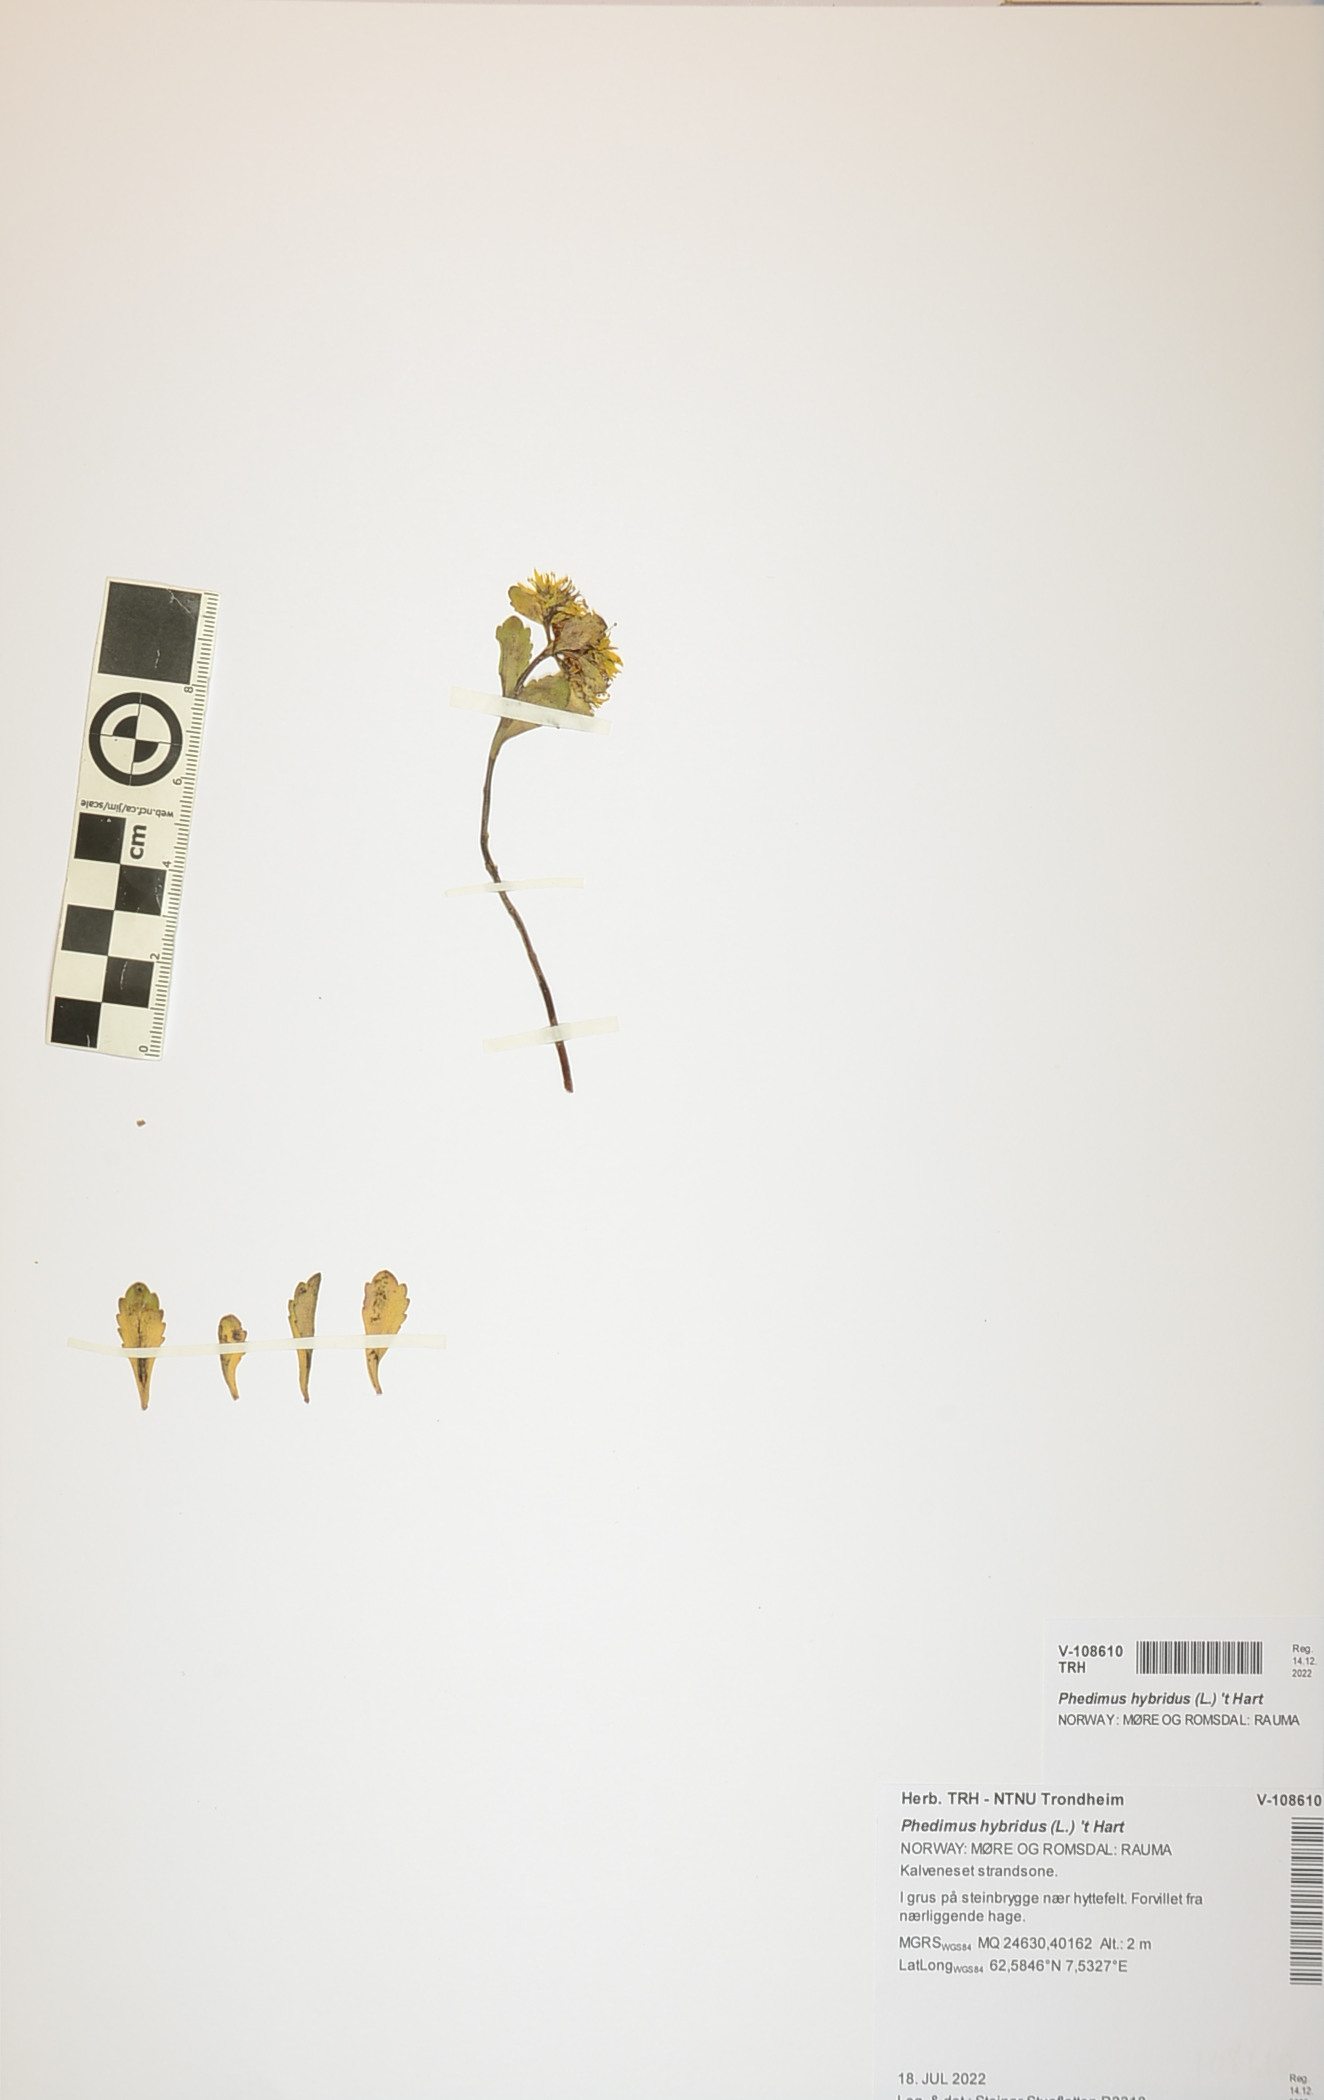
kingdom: Plantae
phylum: Tracheophyta
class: Magnoliopsida
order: Saxifragales
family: Crassulaceae
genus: Phedimus
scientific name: Phedimus hybridus
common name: Hybrid stonecrop
